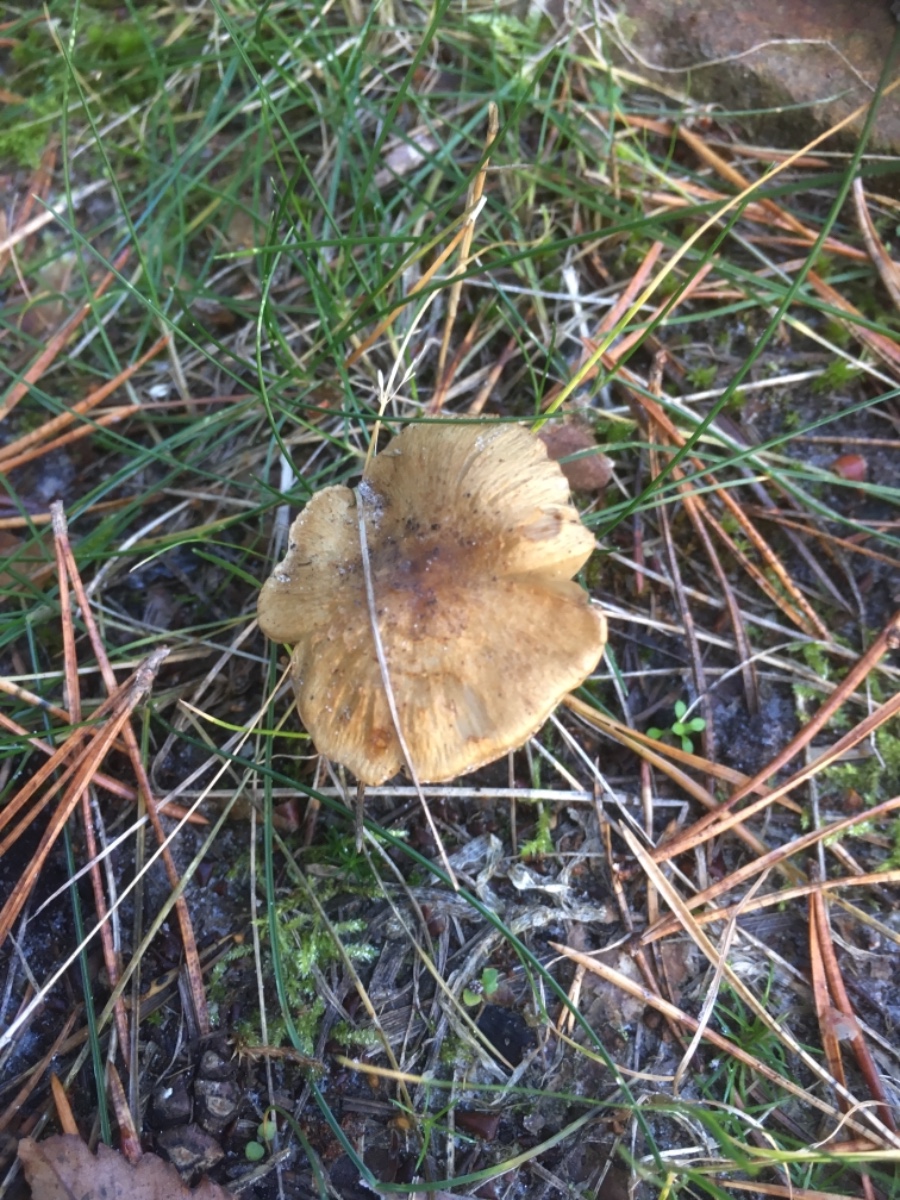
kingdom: Fungi
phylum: Basidiomycota
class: Agaricomycetes
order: Agaricales
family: Inocybaceae
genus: Inocybe
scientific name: Inocybe
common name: trævlhat
